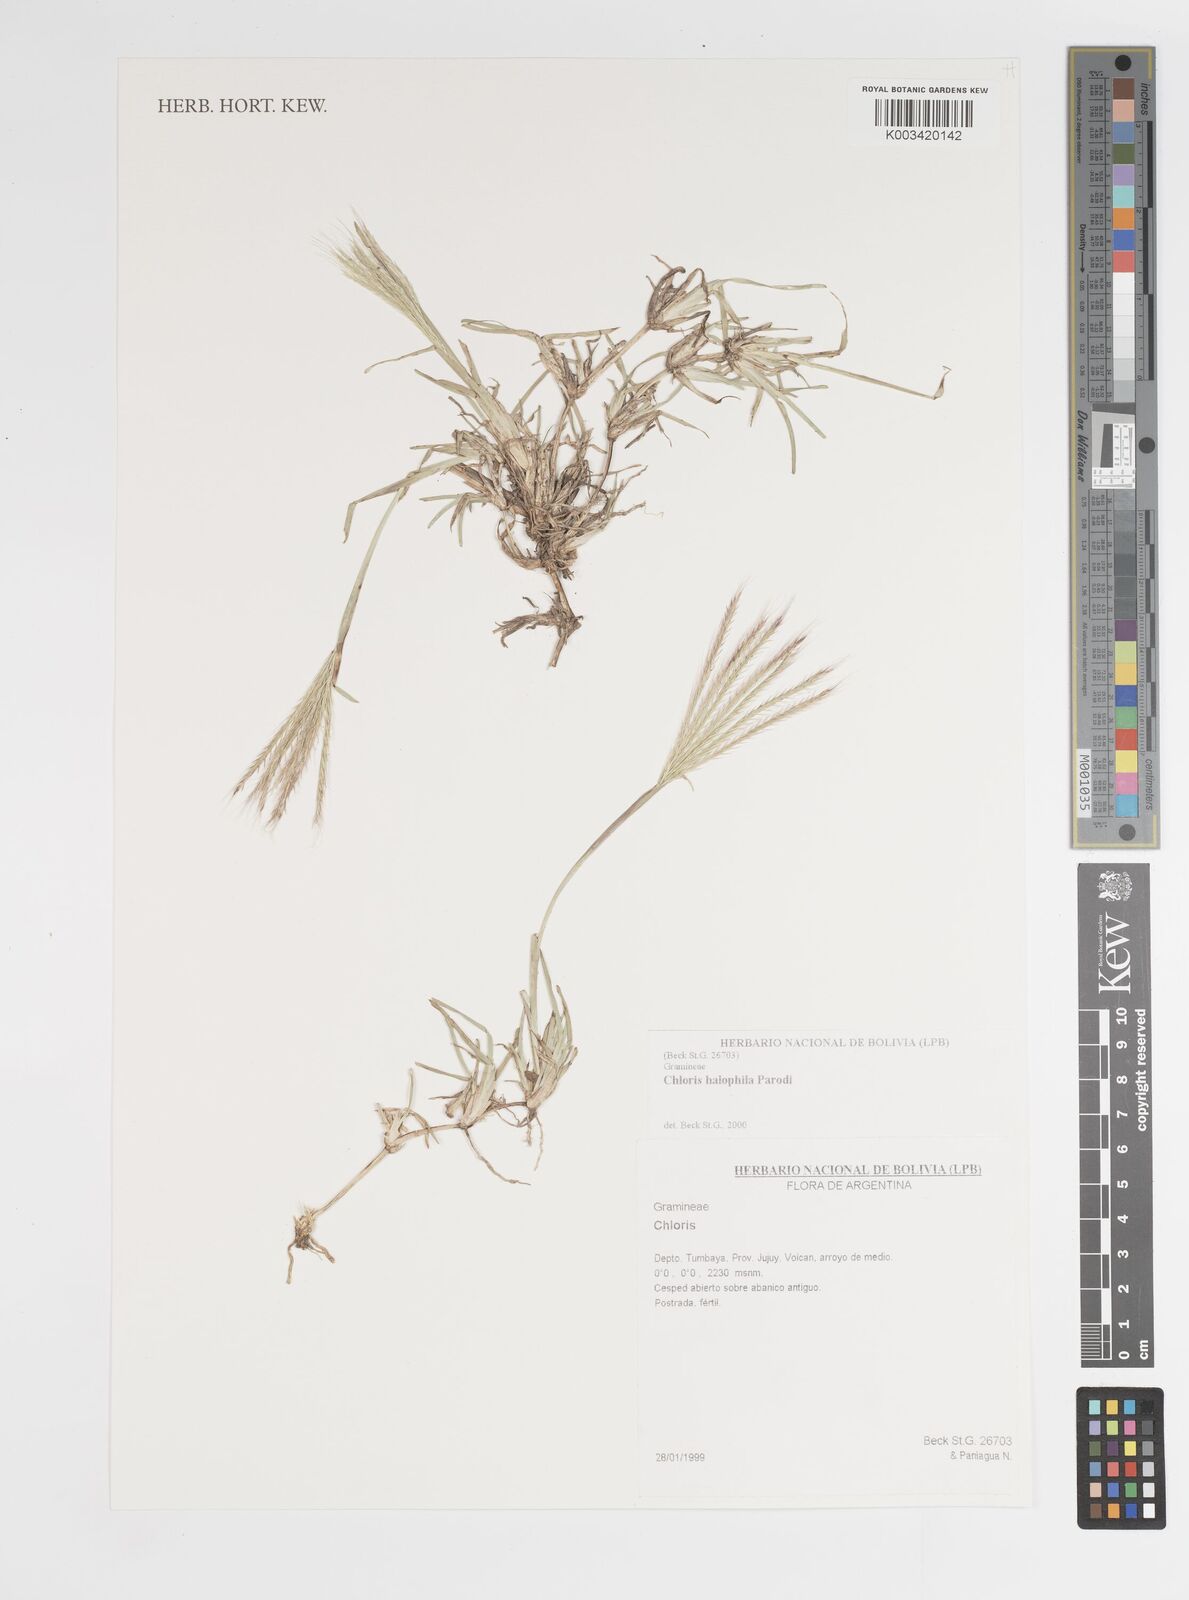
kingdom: Plantae
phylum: Tracheophyta
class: Liliopsida
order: Poales
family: Poaceae
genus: Chloris
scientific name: Chloris halophila
